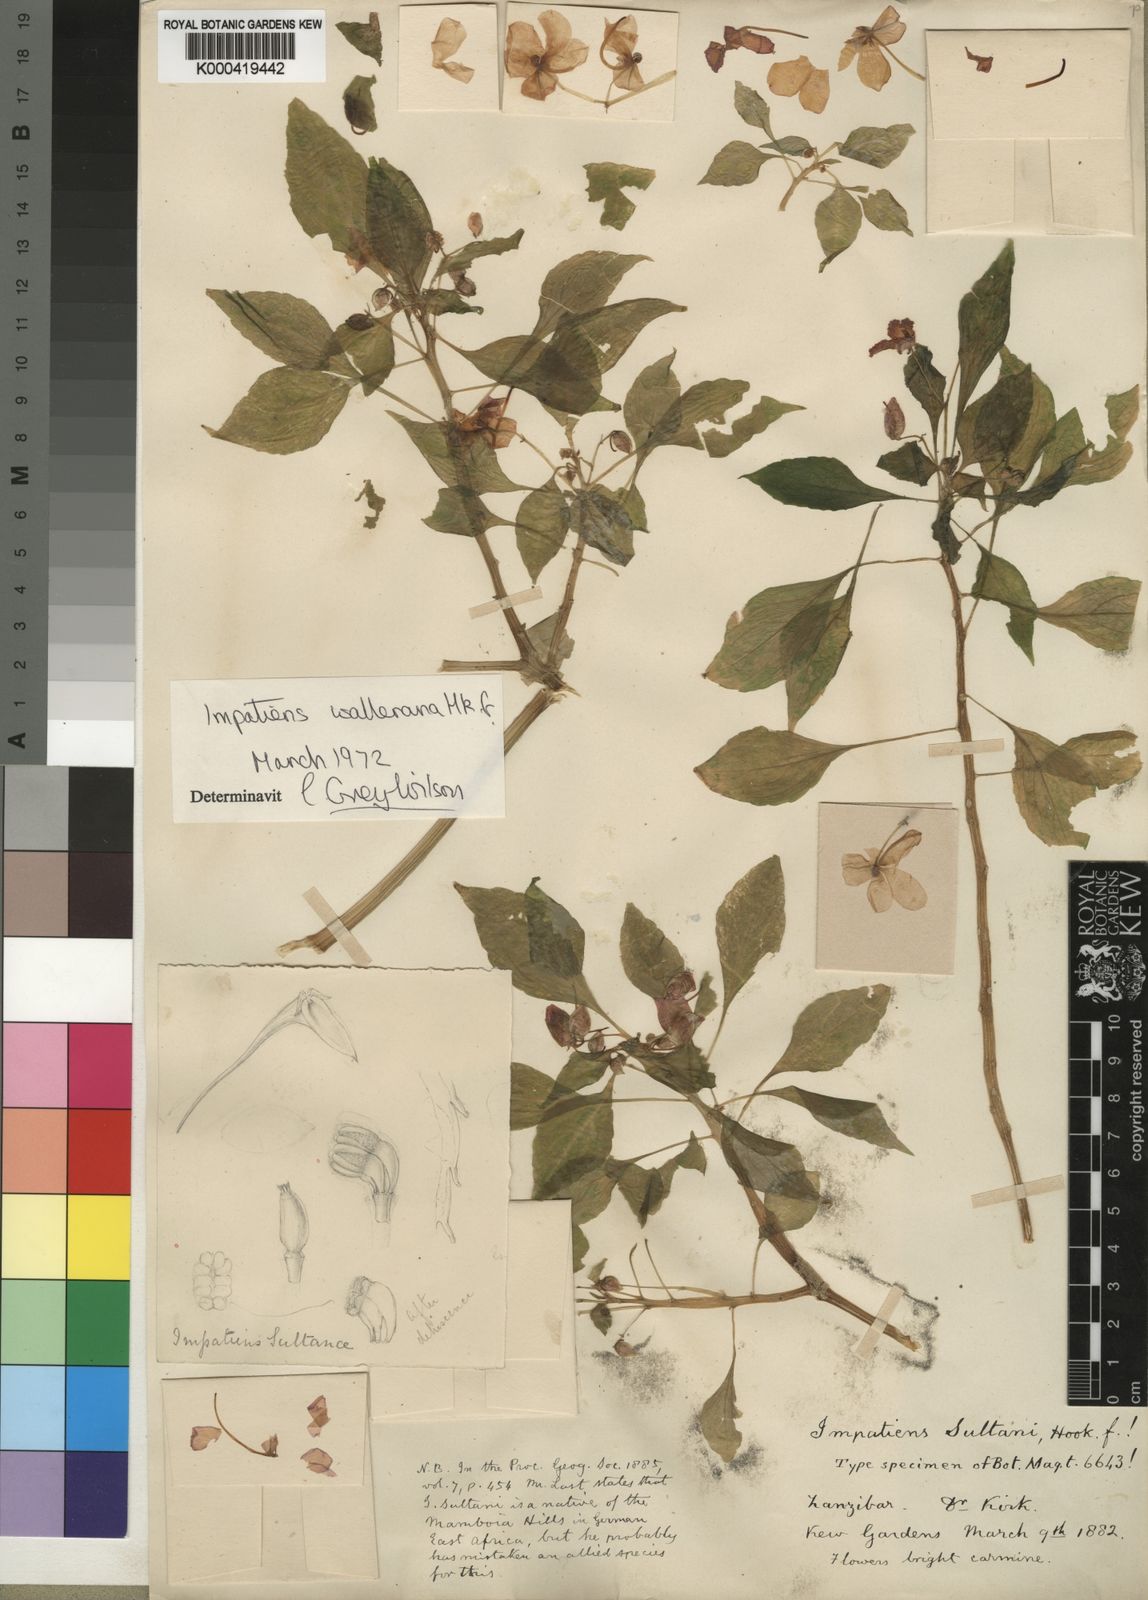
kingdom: Plantae
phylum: Tracheophyta
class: Magnoliopsida
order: Ericales
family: Balsaminaceae
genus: Impatiens
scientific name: Impatiens walleriana
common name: Buzzy lizzy
